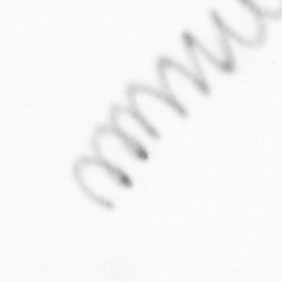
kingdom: Chromista
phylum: Ochrophyta
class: Bacillariophyceae
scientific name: Bacillariophyceae
